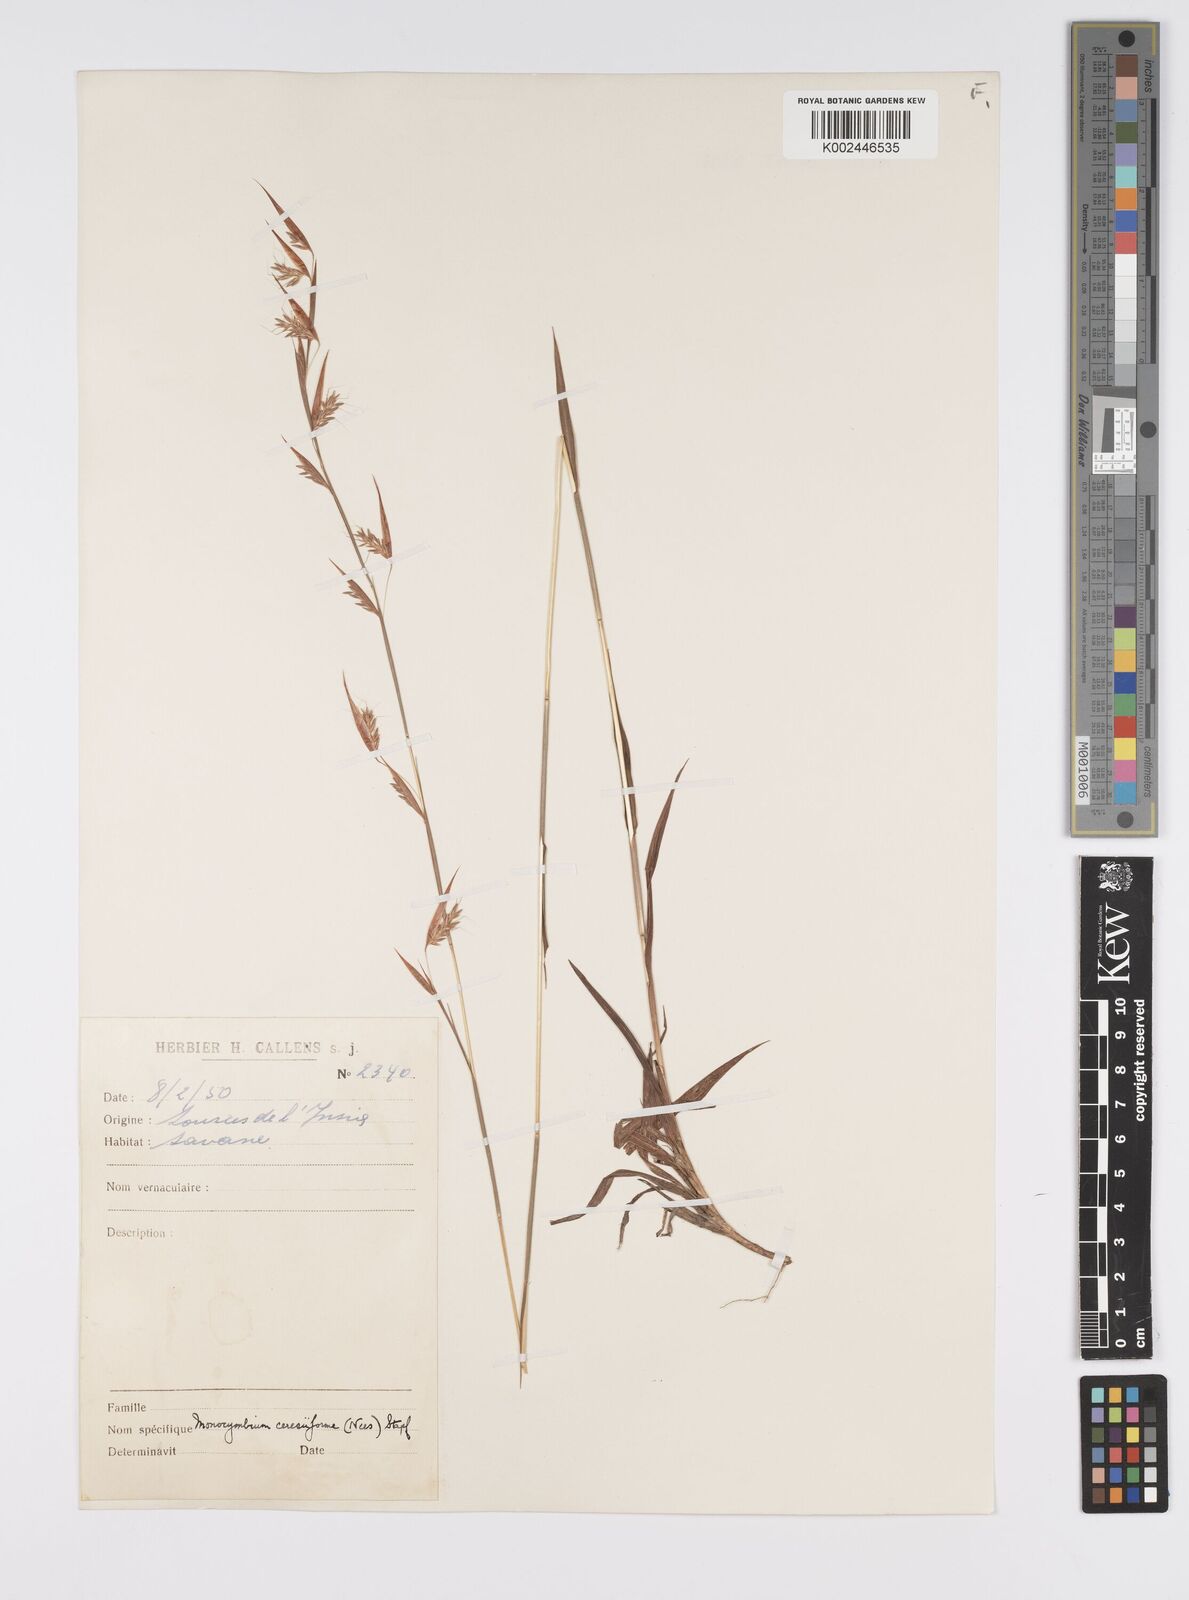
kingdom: Plantae
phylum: Tracheophyta
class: Liliopsida
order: Poales
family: Poaceae
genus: Monocymbium
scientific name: Monocymbium ceresiiforme
